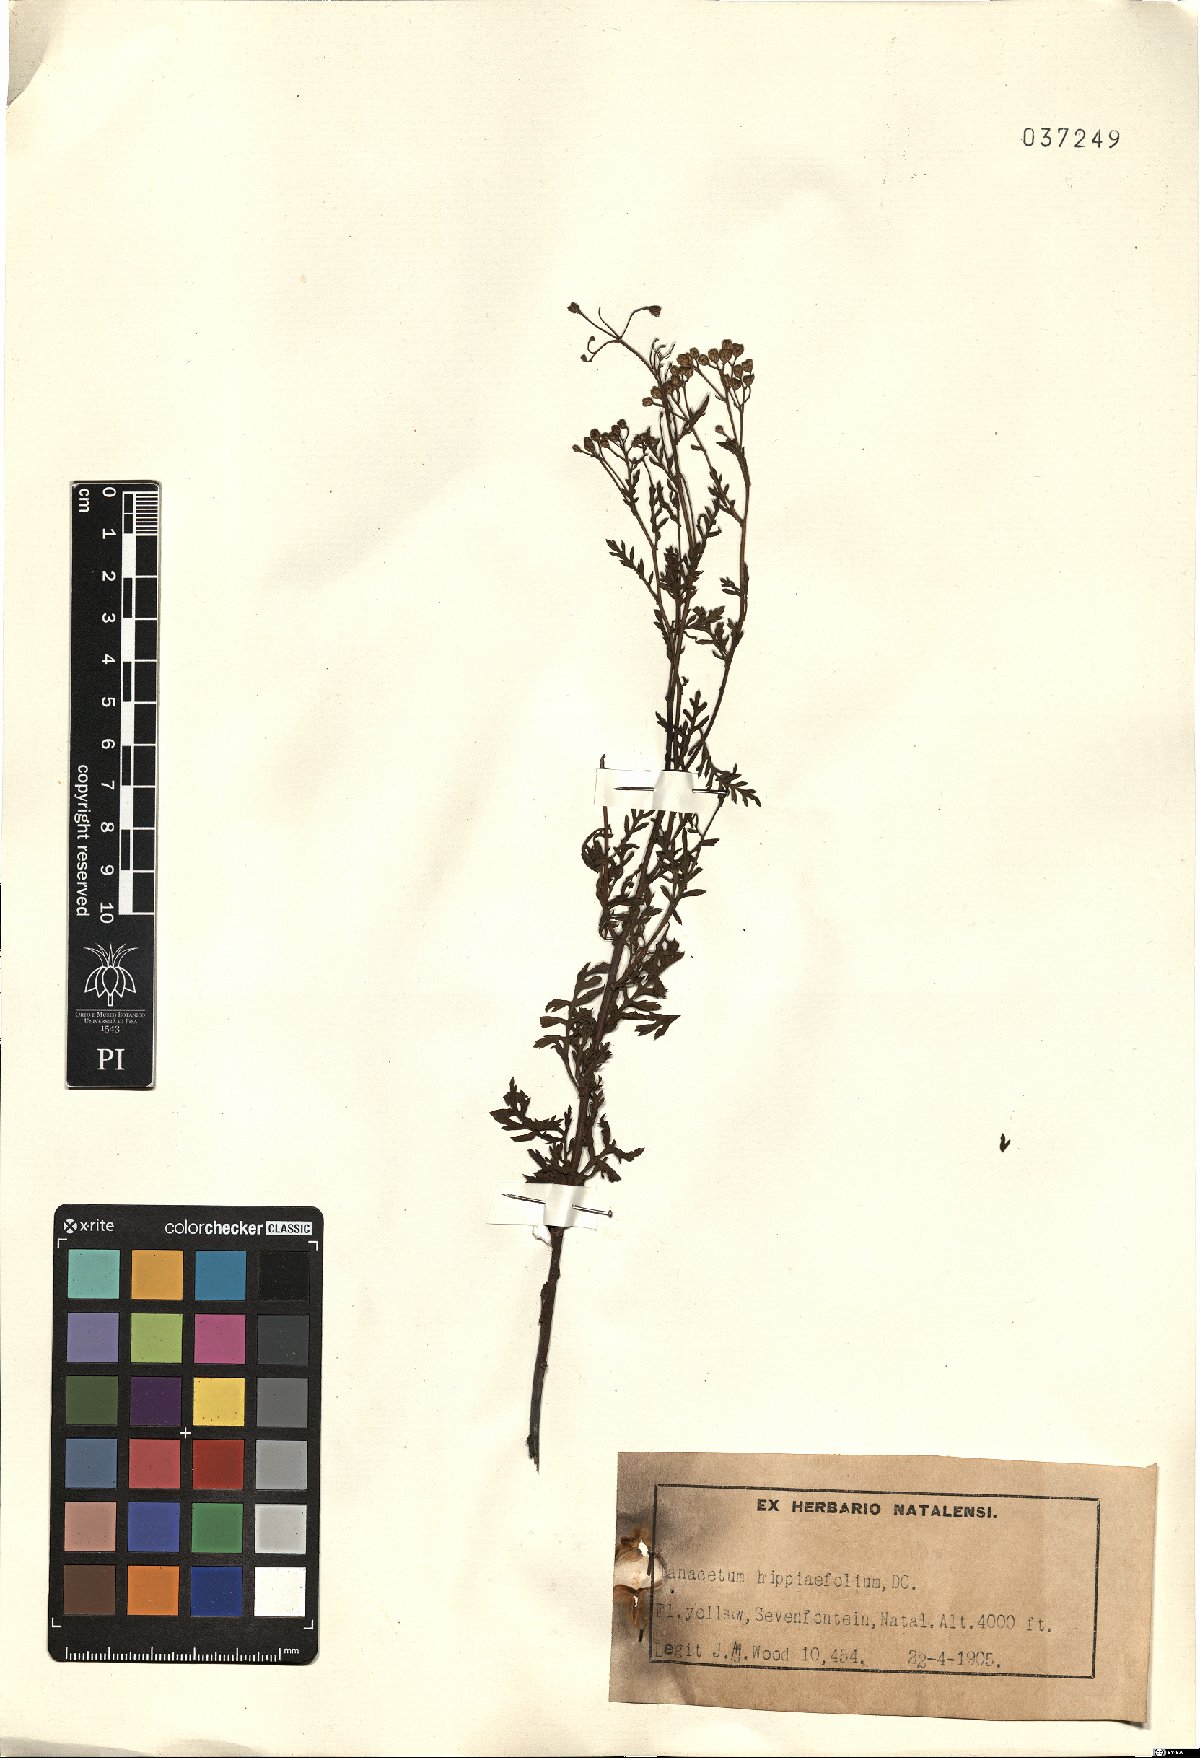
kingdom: Plantae
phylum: Tracheophyta
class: Magnoliopsida
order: Asterales
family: Asteraceae
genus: Schistostephium
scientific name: Schistostephium hippiifolium
